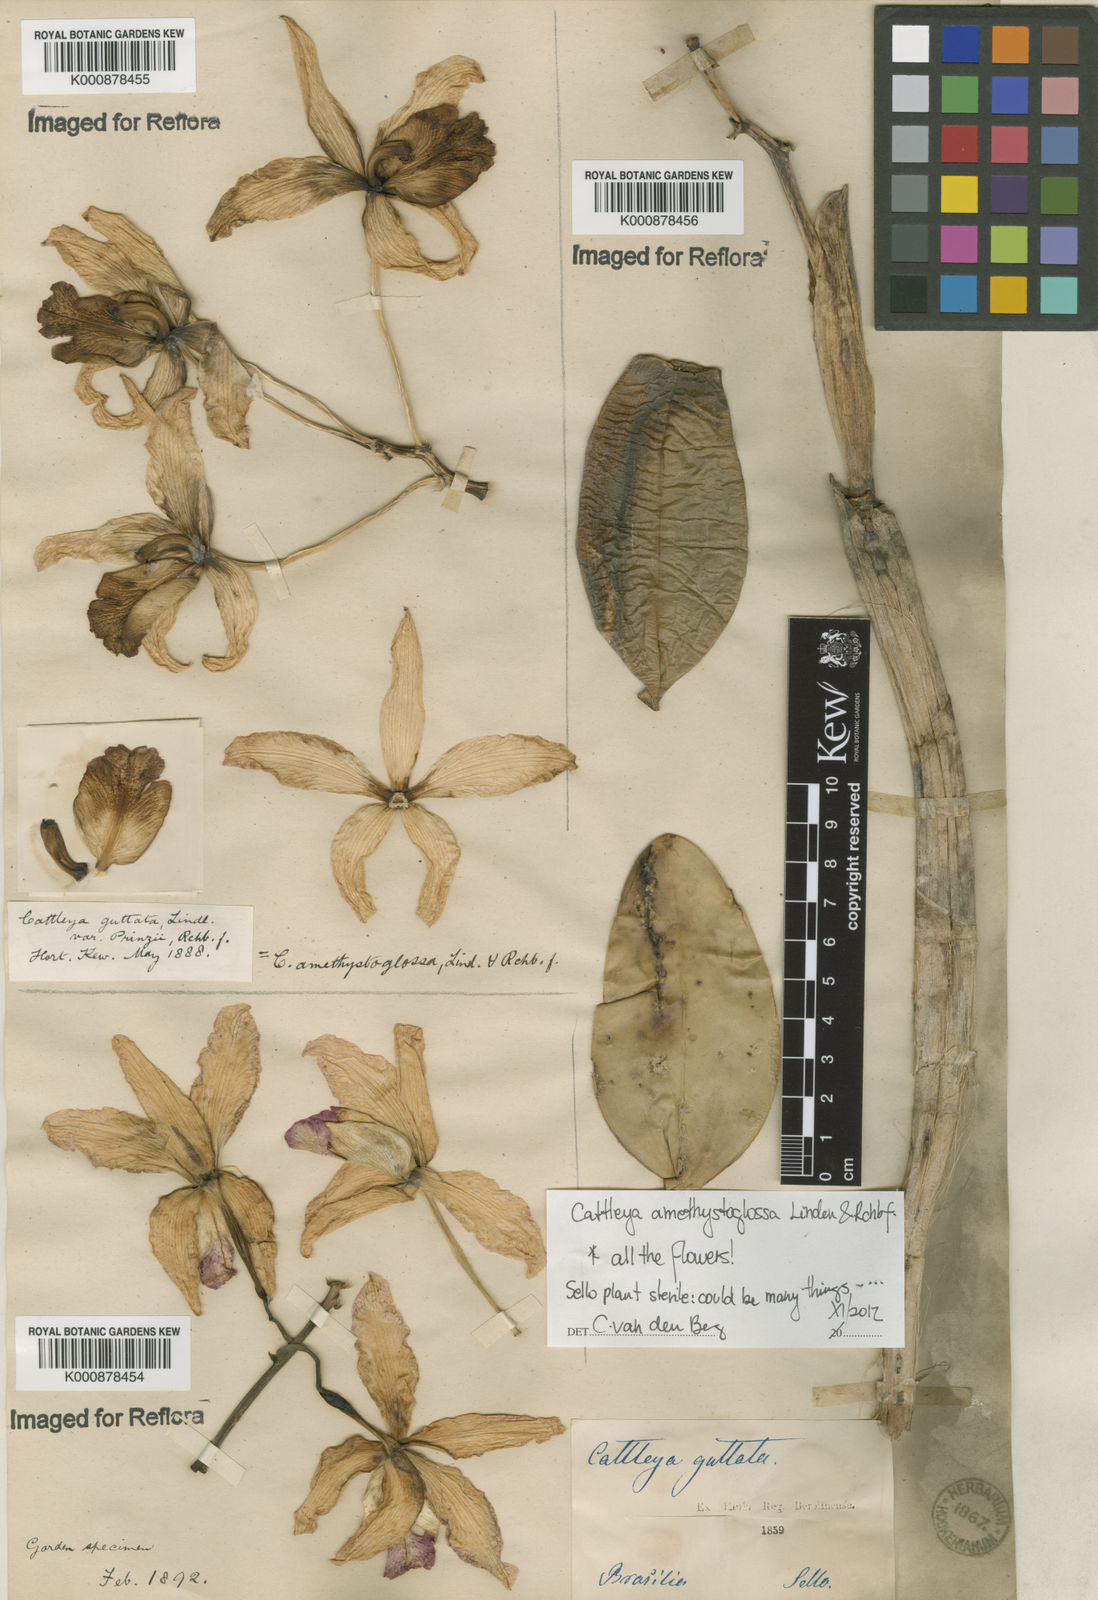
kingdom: Plantae
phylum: Tracheophyta
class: Liliopsida
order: Asparagales
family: Orchidaceae
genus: Cattleya
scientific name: Cattleya
